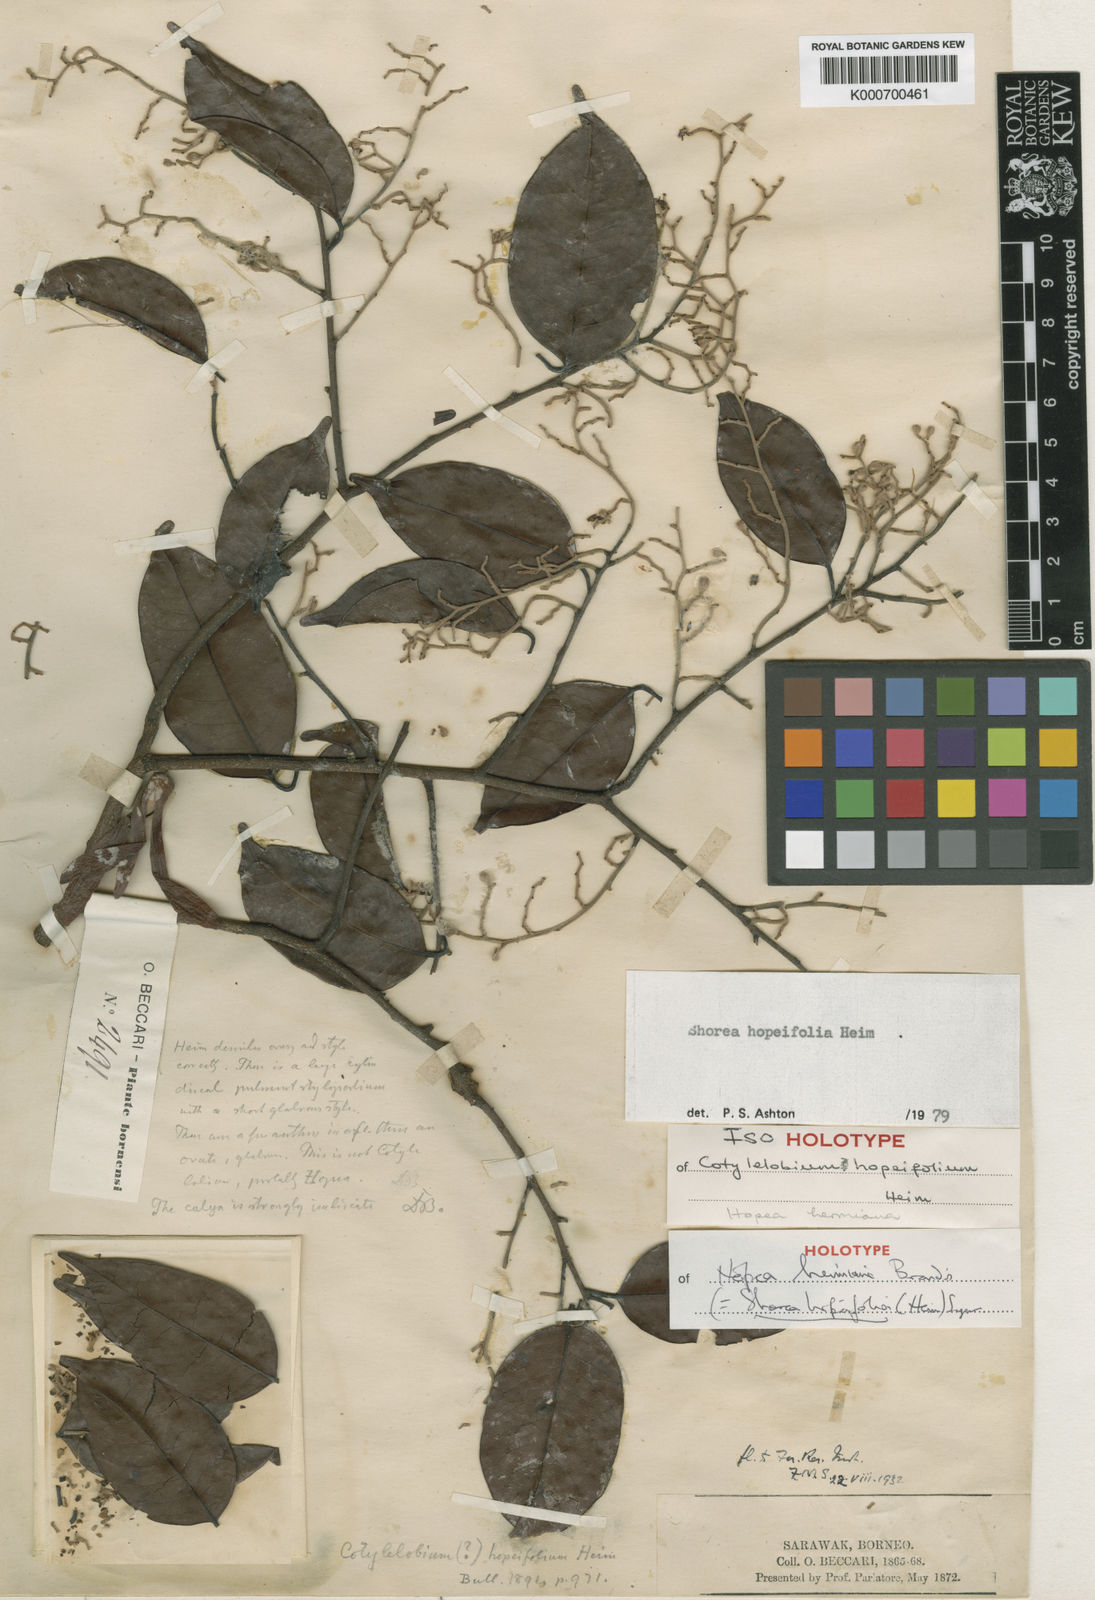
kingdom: Plantae
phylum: Tracheophyta
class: Magnoliopsida
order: Malvales
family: Dipterocarpaceae
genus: Shorea
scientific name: Shorea hopeifolia
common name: Yellow meranti
